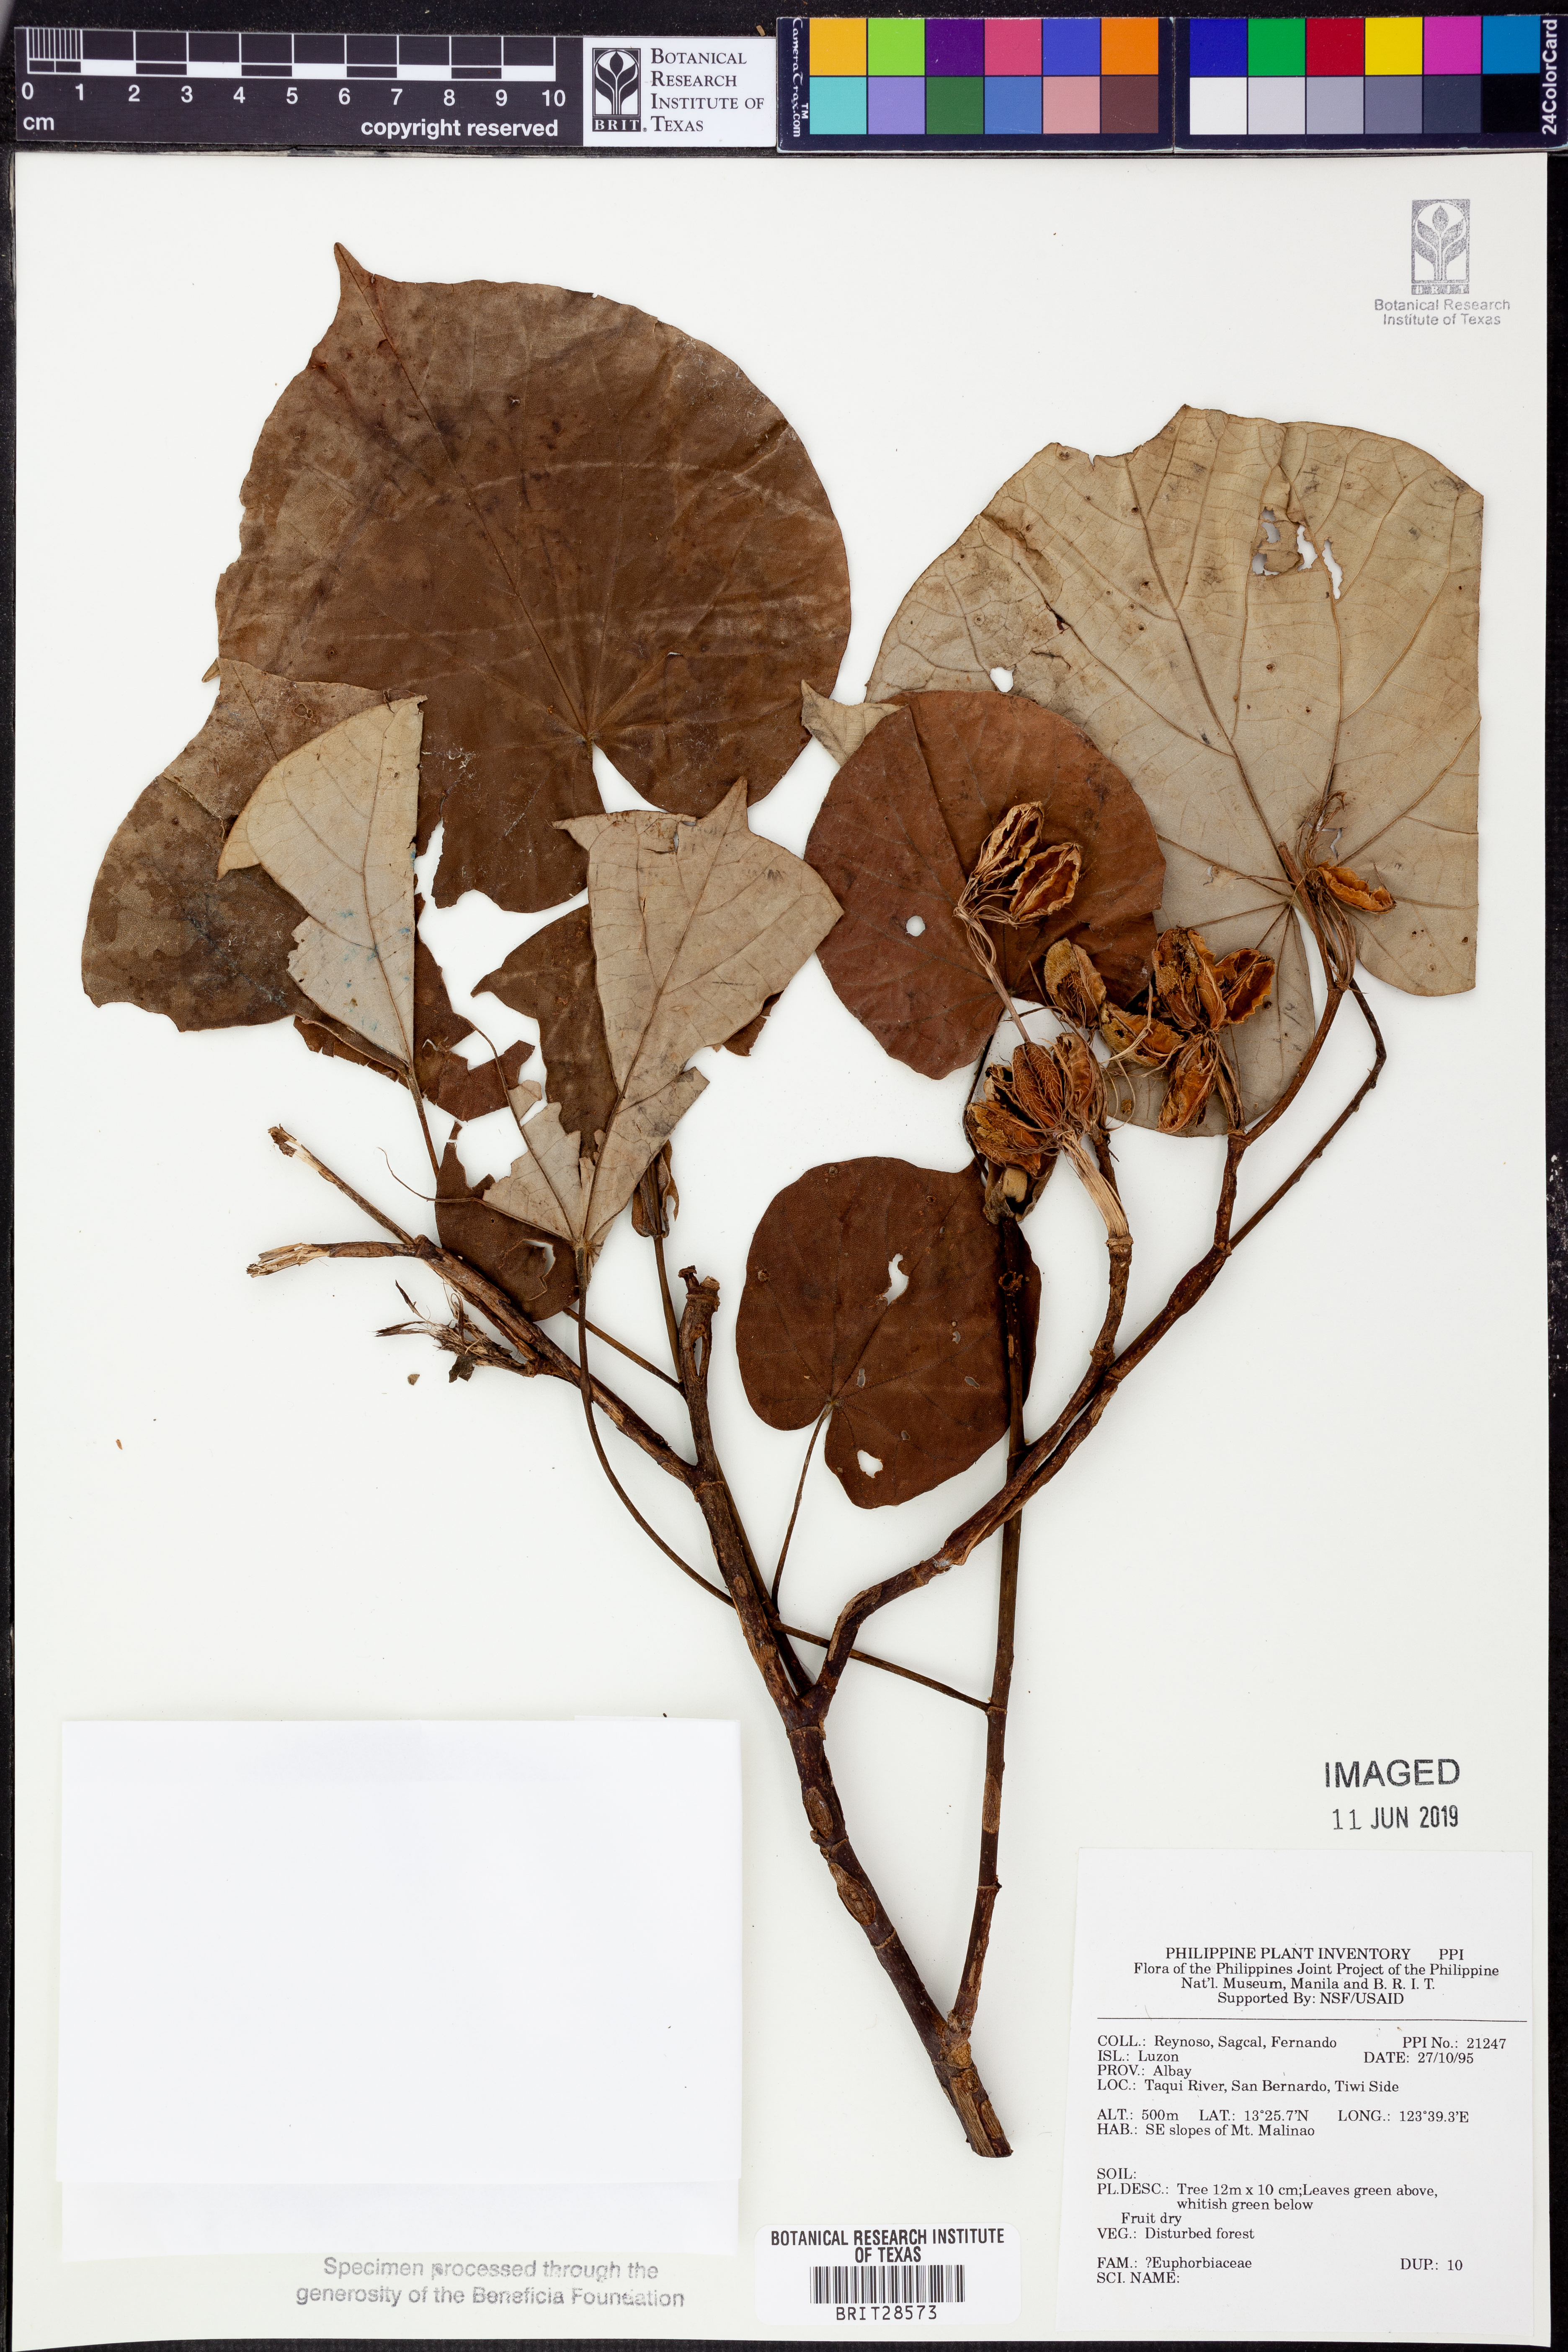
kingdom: Plantae
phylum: Tracheophyta
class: Magnoliopsida
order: Malpighiales
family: Euphorbiaceae
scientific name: Euphorbiaceae
